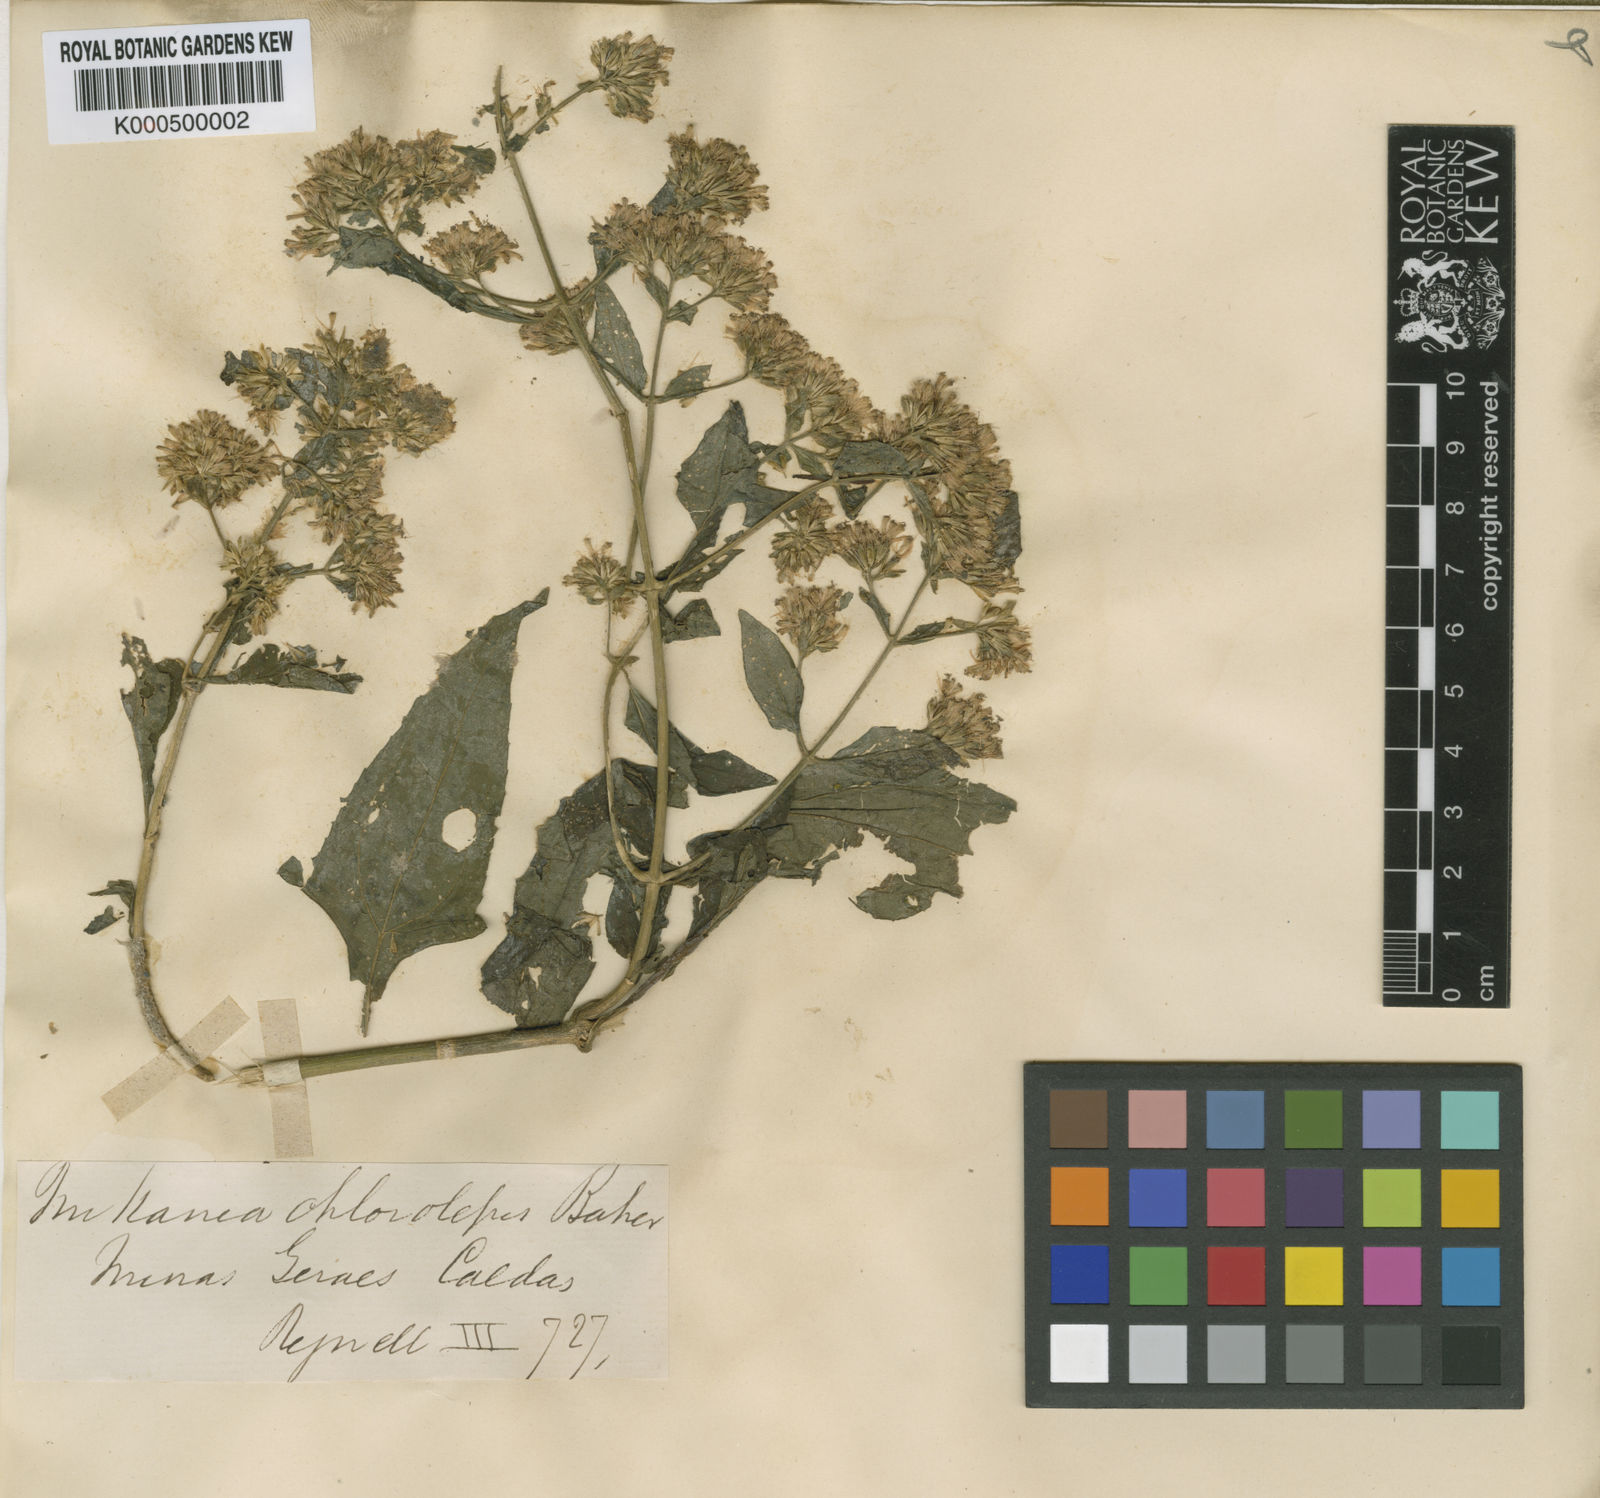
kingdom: Plantae
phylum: Tracheophyta
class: Magnoliopsida
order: Asterales
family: Asteraceae
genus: Mikania
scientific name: Mikania chlorolepis
